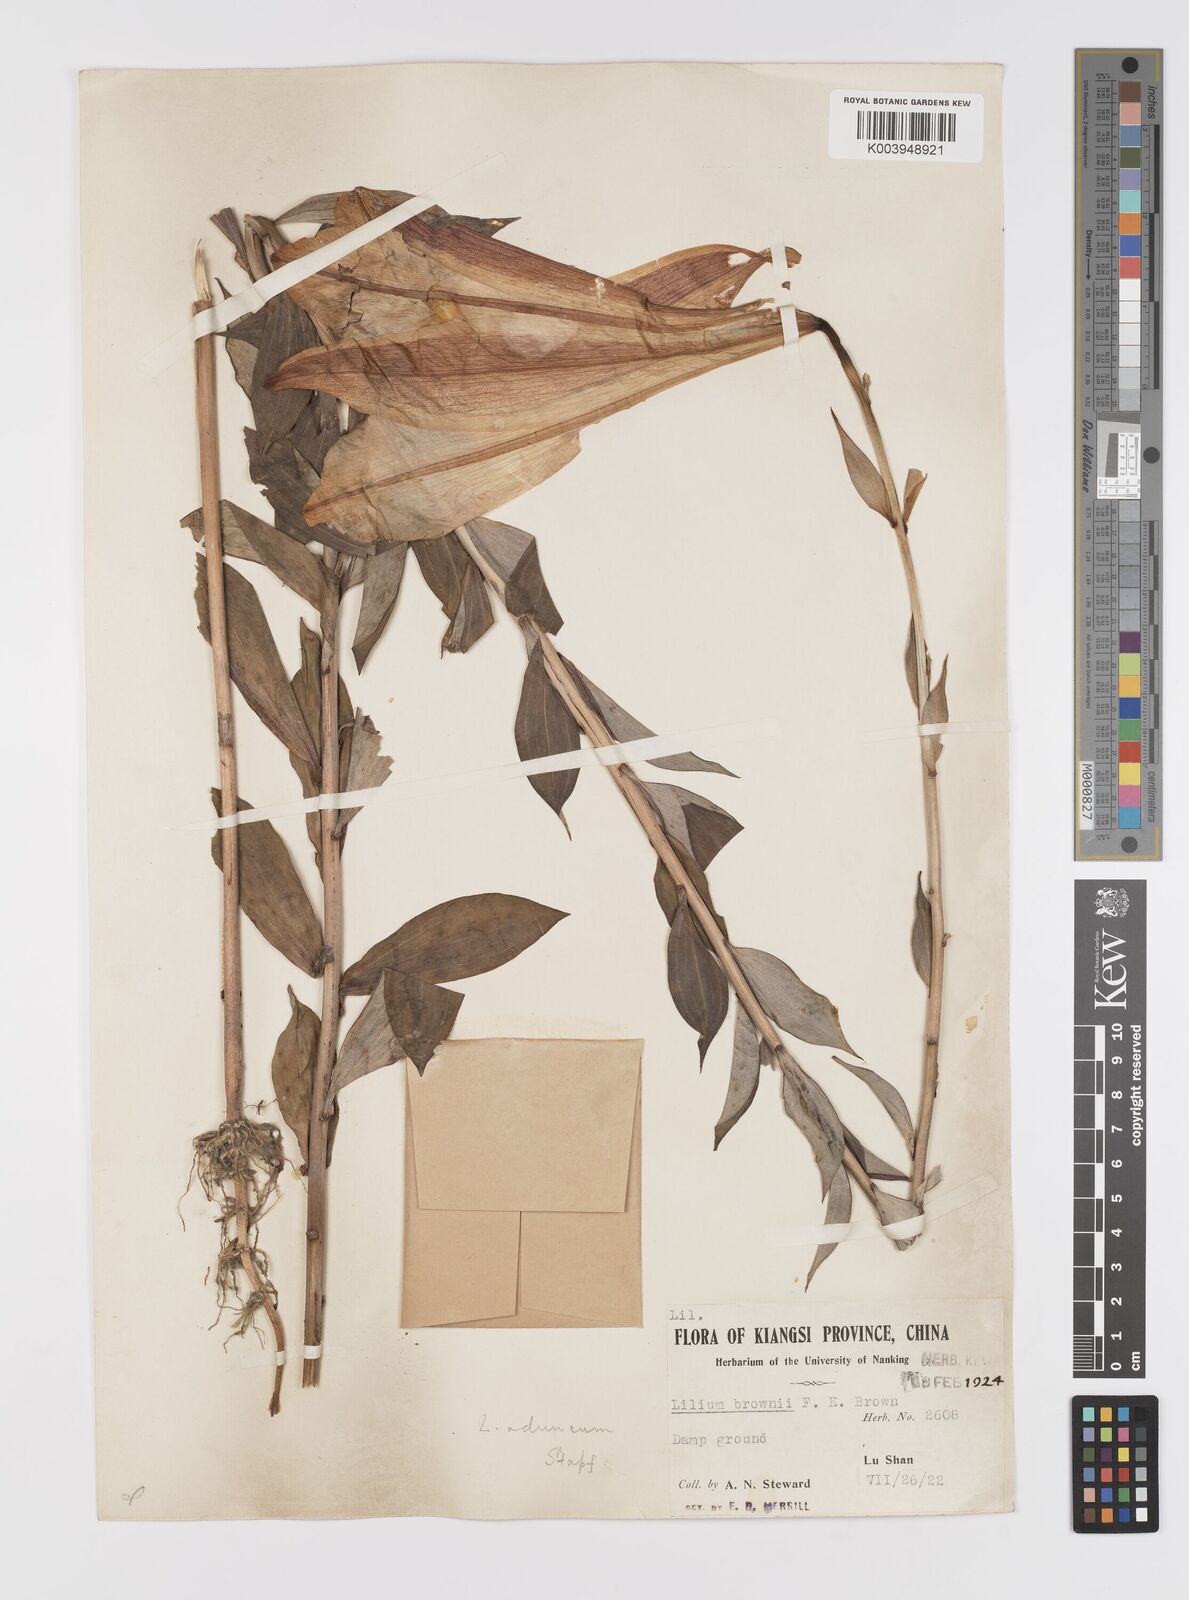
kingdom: Plantae
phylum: Tracheophyta
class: Liliopsida
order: Liliales
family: Liliaceae
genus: Lilium
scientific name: Lilium brownii
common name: Brown's lily
